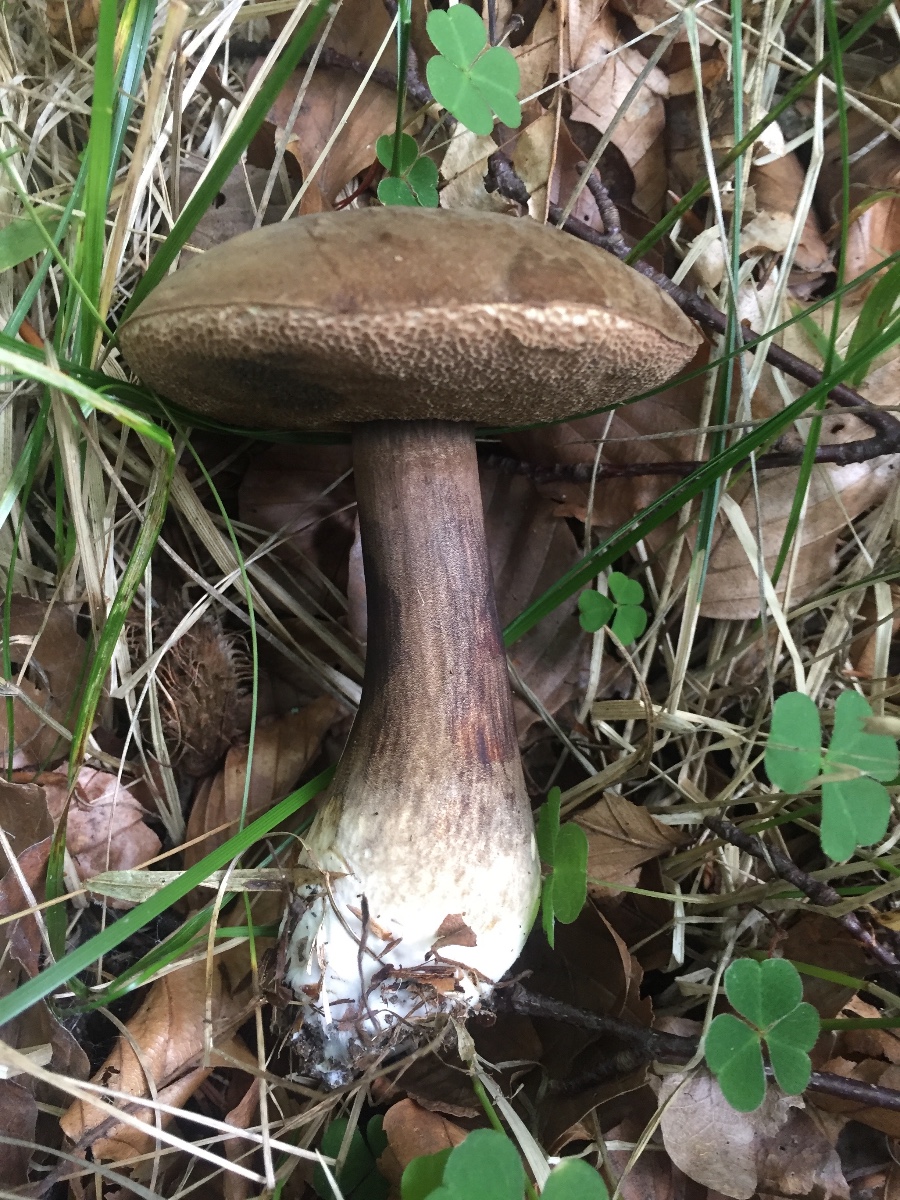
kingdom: Fungi
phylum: Basidiomycota
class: Agaricomycetes
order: Boletales
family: Boletaceae
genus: Porphyrellus
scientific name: Porphyrellus porphyrosporus
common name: sodrørhat
